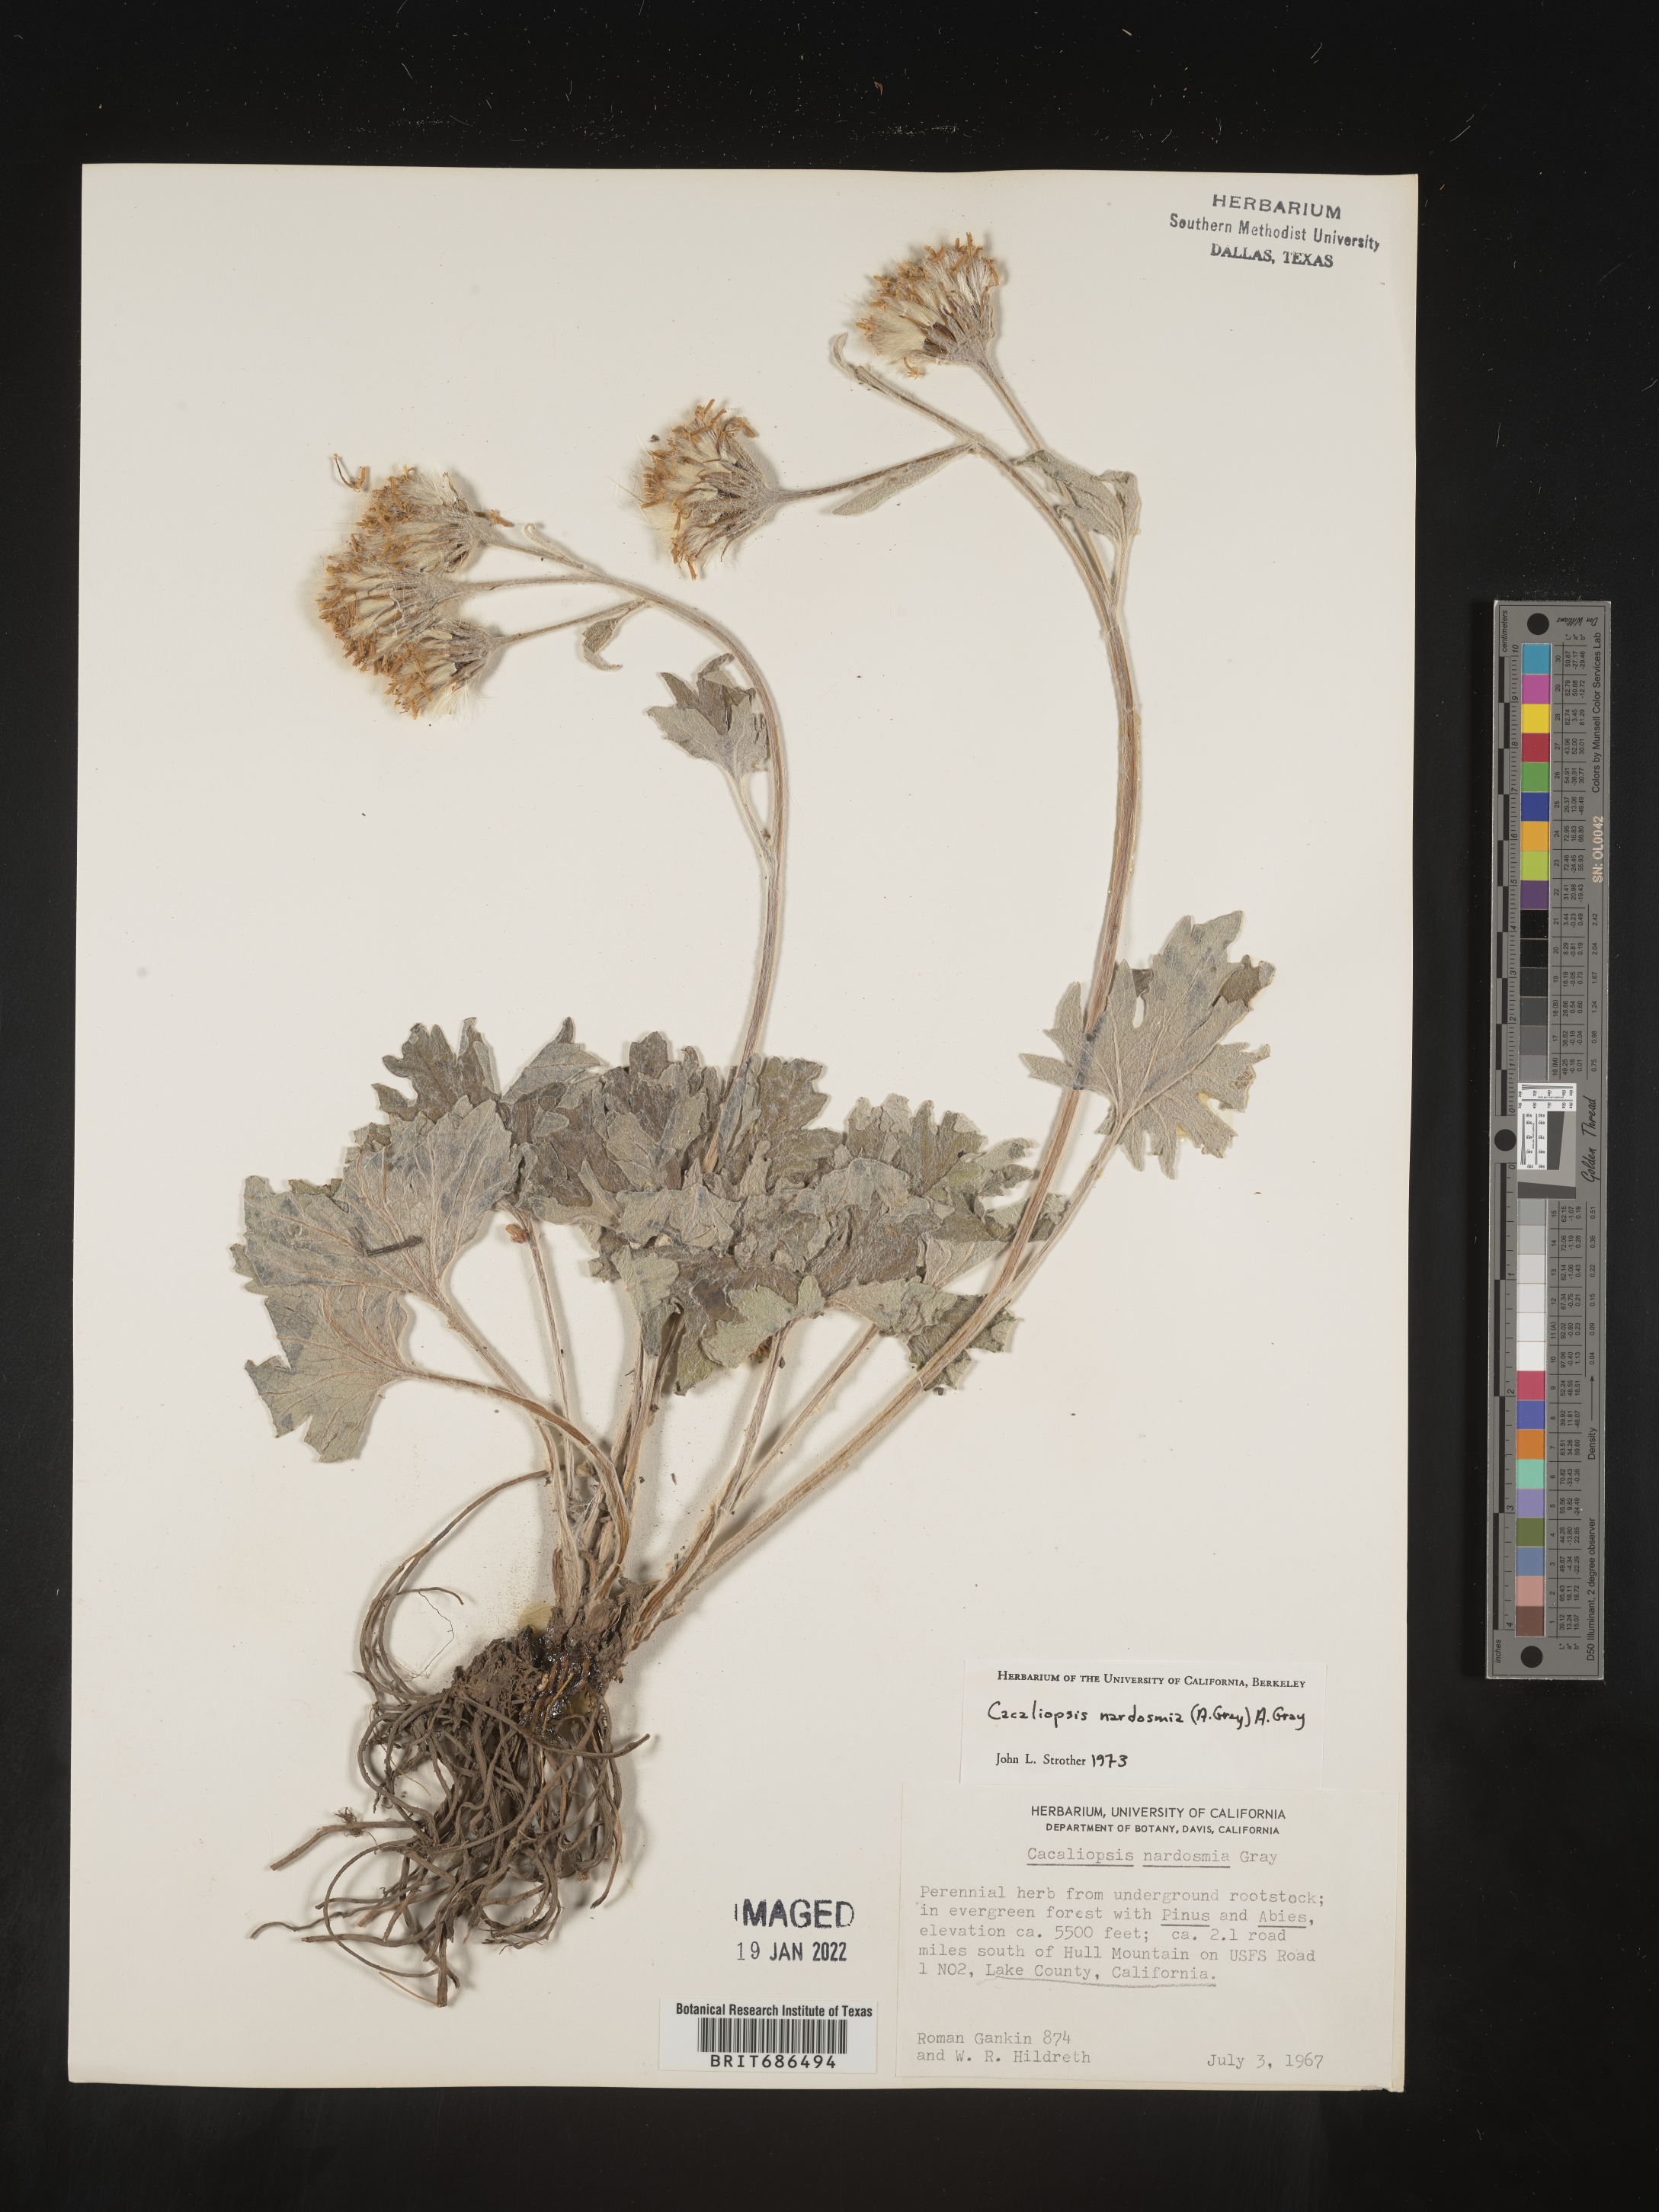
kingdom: Plantae
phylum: Tracheophyta
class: Magnoliopsida
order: Asterales
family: Asteraceae
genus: Cacaliopsis
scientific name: Cacaliopsis
